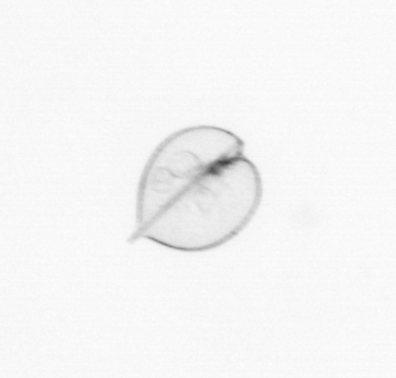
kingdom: Chromista
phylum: Myzozoa
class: Dinophyceae
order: Noctilucales
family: Noctilucaceae
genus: Noctiluca
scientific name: Noctiluca scintillans
